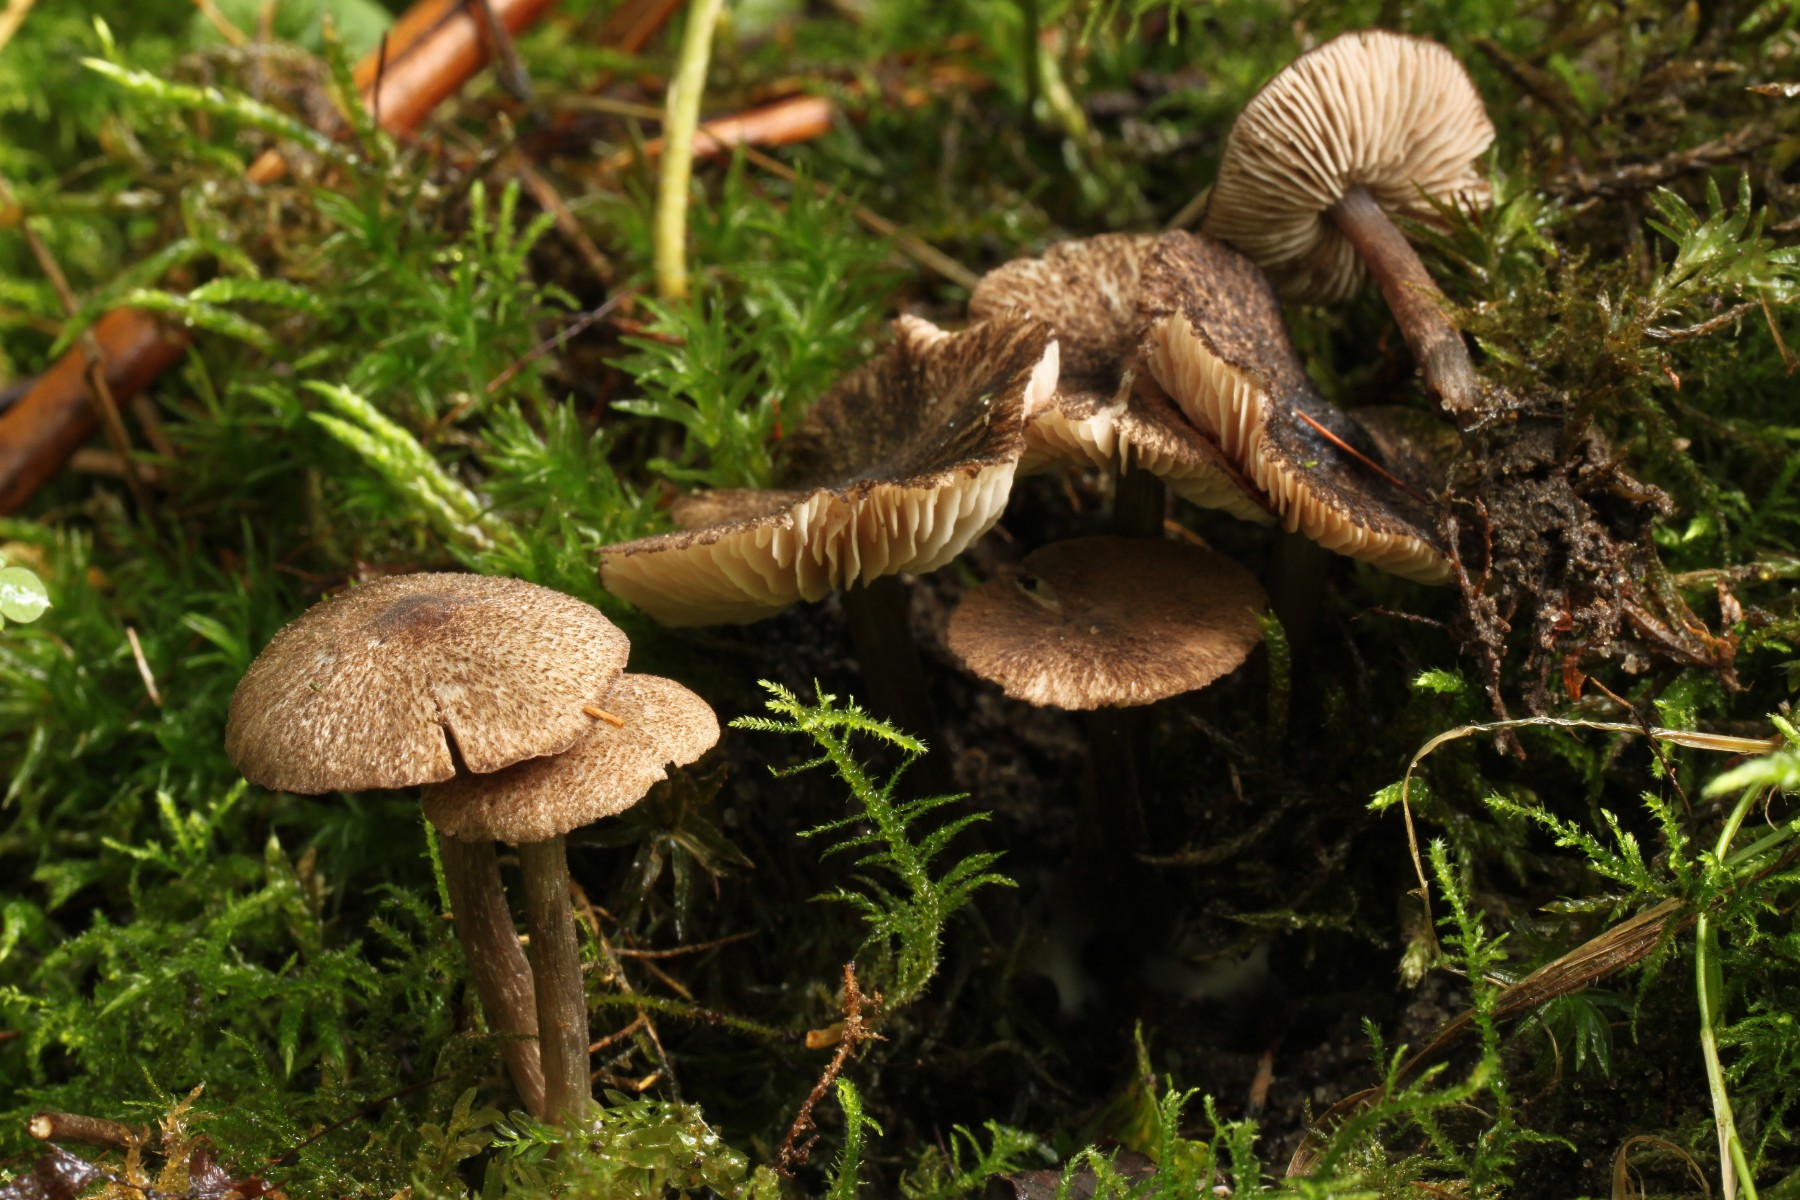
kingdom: Fungi
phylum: Basidiomycota
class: Agaricomycetes
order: Agaricales
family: Entolomataceae
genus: Entoloma
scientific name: Entoloma waverenii
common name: trævlet rødblad
